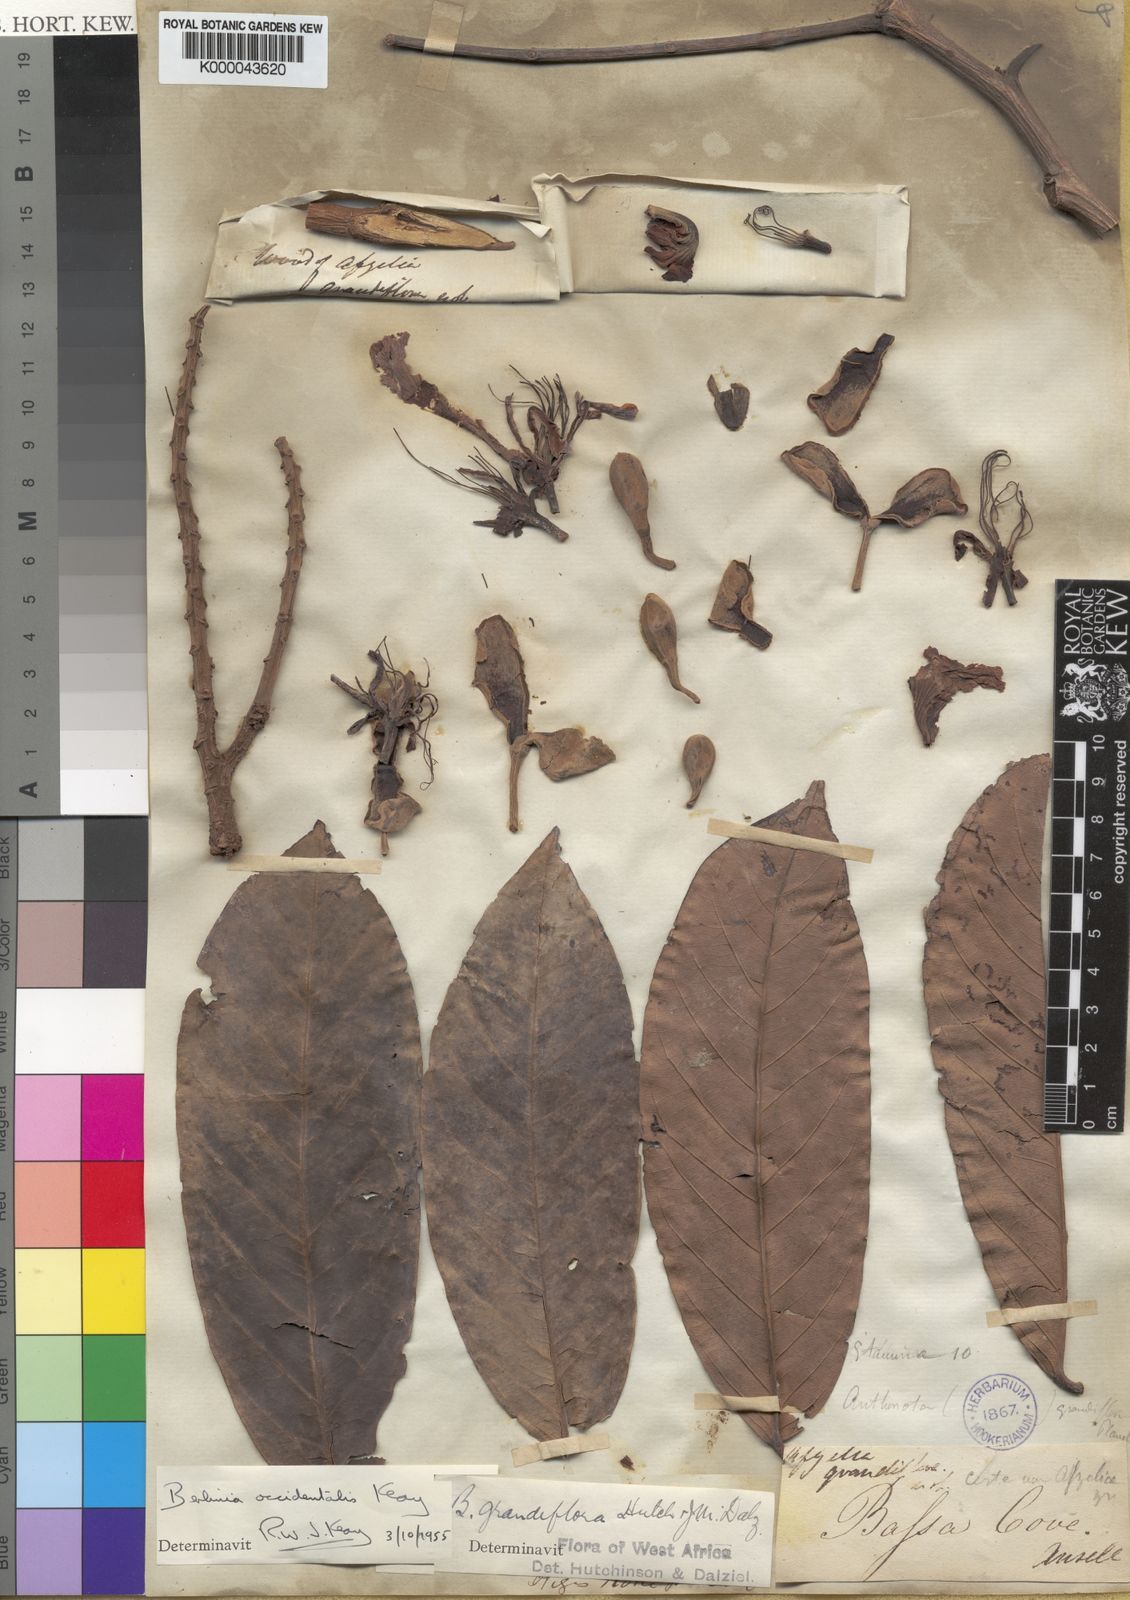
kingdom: Plantae
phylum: Tracheophyta
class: Magnoliopsida
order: Fabales
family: Fabaceae
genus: Berlinia
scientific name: Berlinia occidentalis
